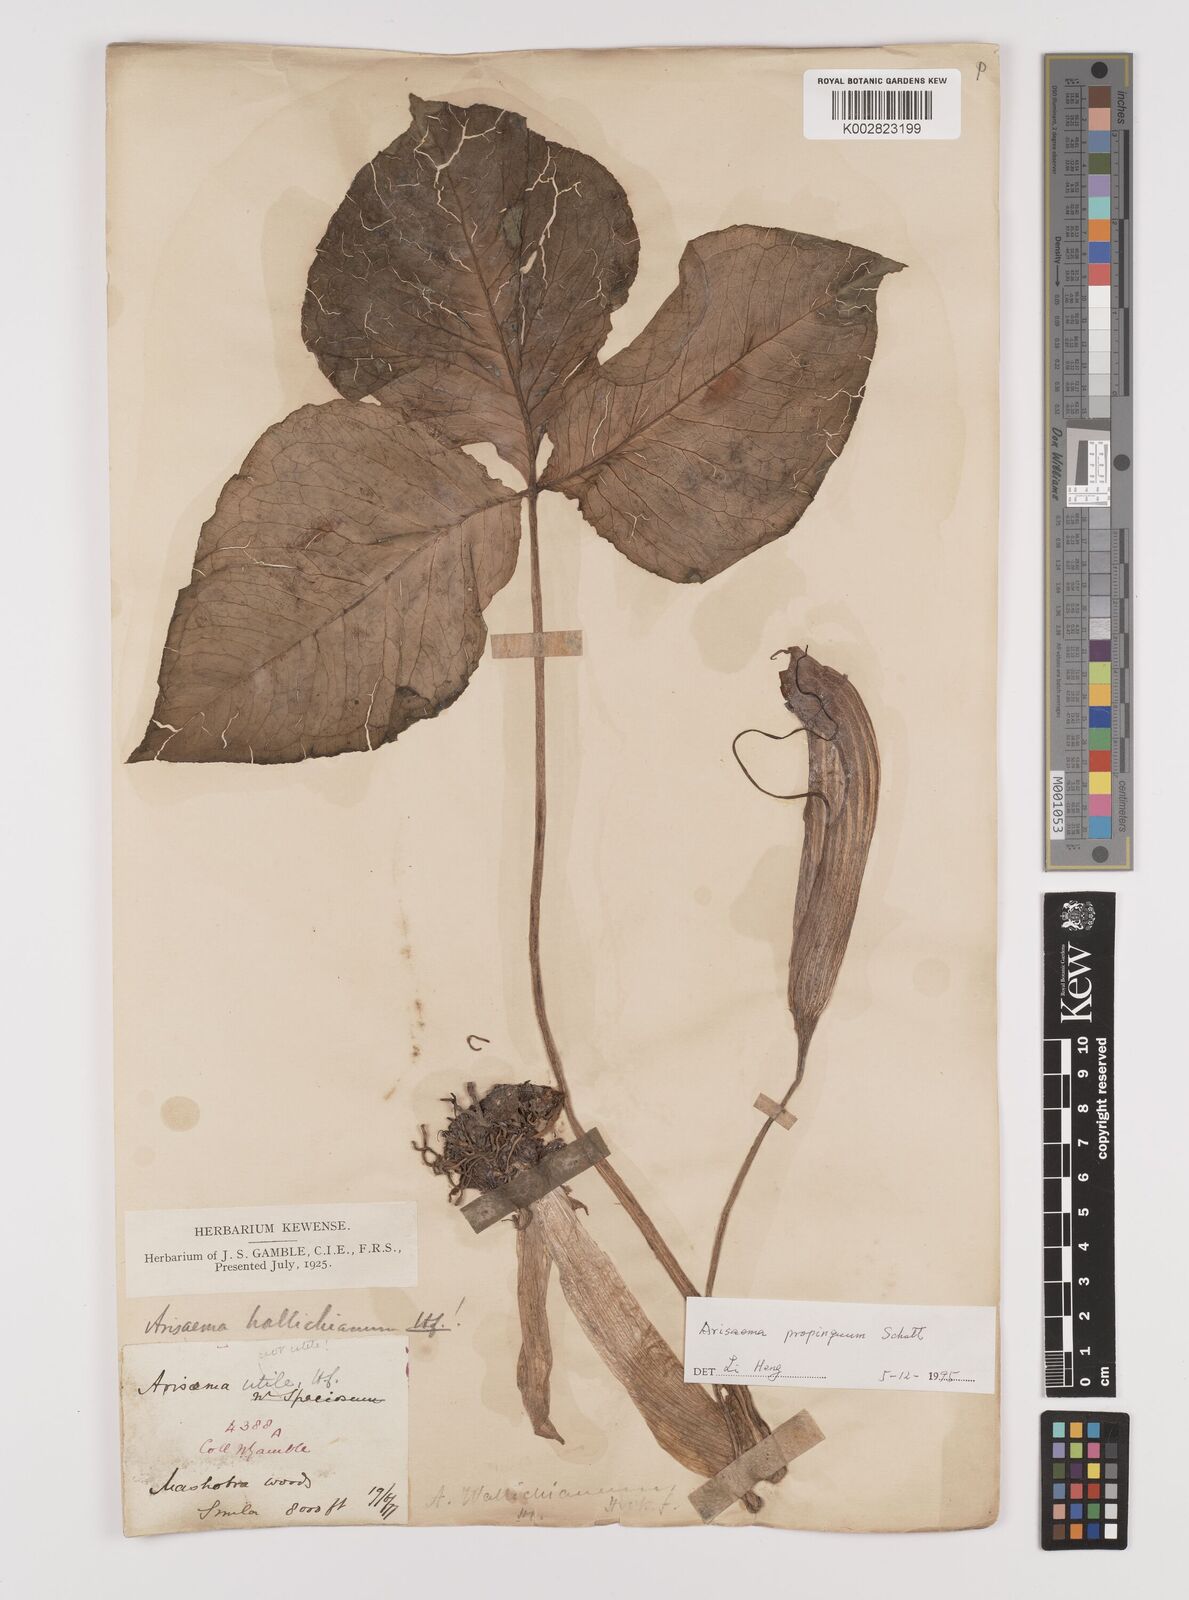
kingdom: Plantae
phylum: Tracheophyta
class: Liliopsida
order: Alismatales
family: Araceae
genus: Arisaema
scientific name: Arisaema propinquum
